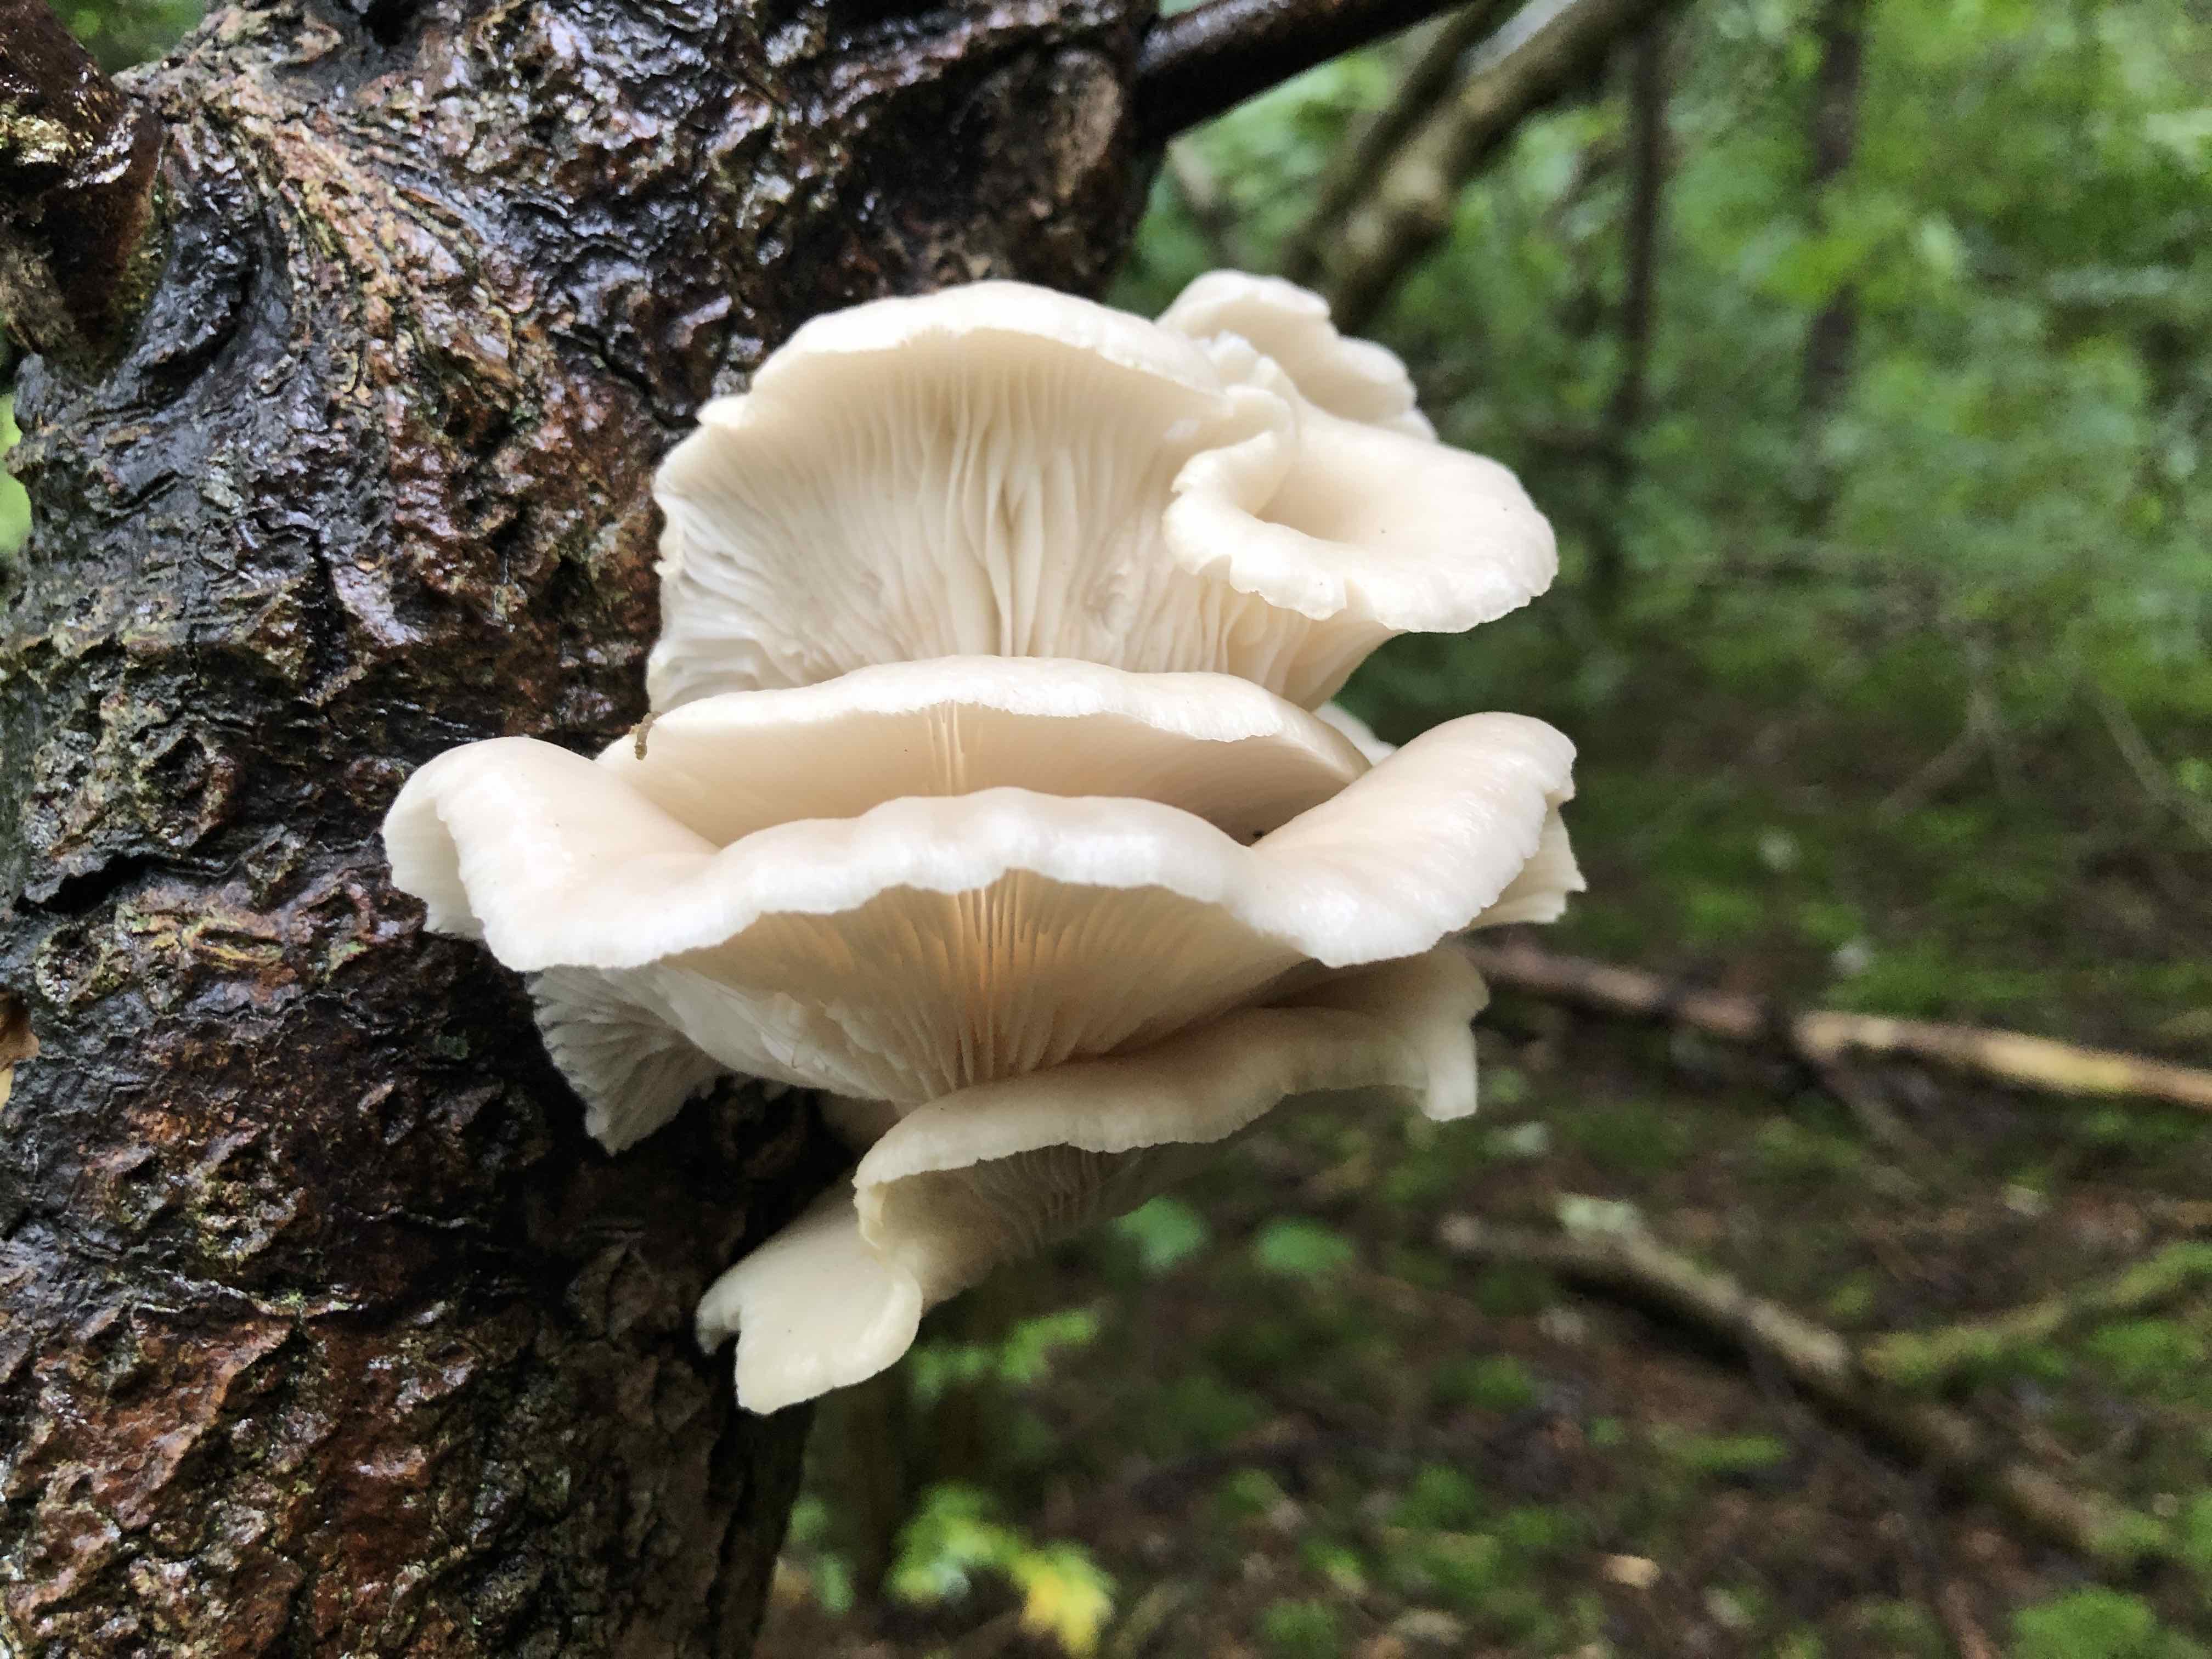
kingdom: Fungi
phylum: Basidiomycota
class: Agaricomycetes
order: Agaricales
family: Pleurotaceae
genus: Pleurotus
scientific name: Pleurotus pulmonarius
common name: sommer-østershat
